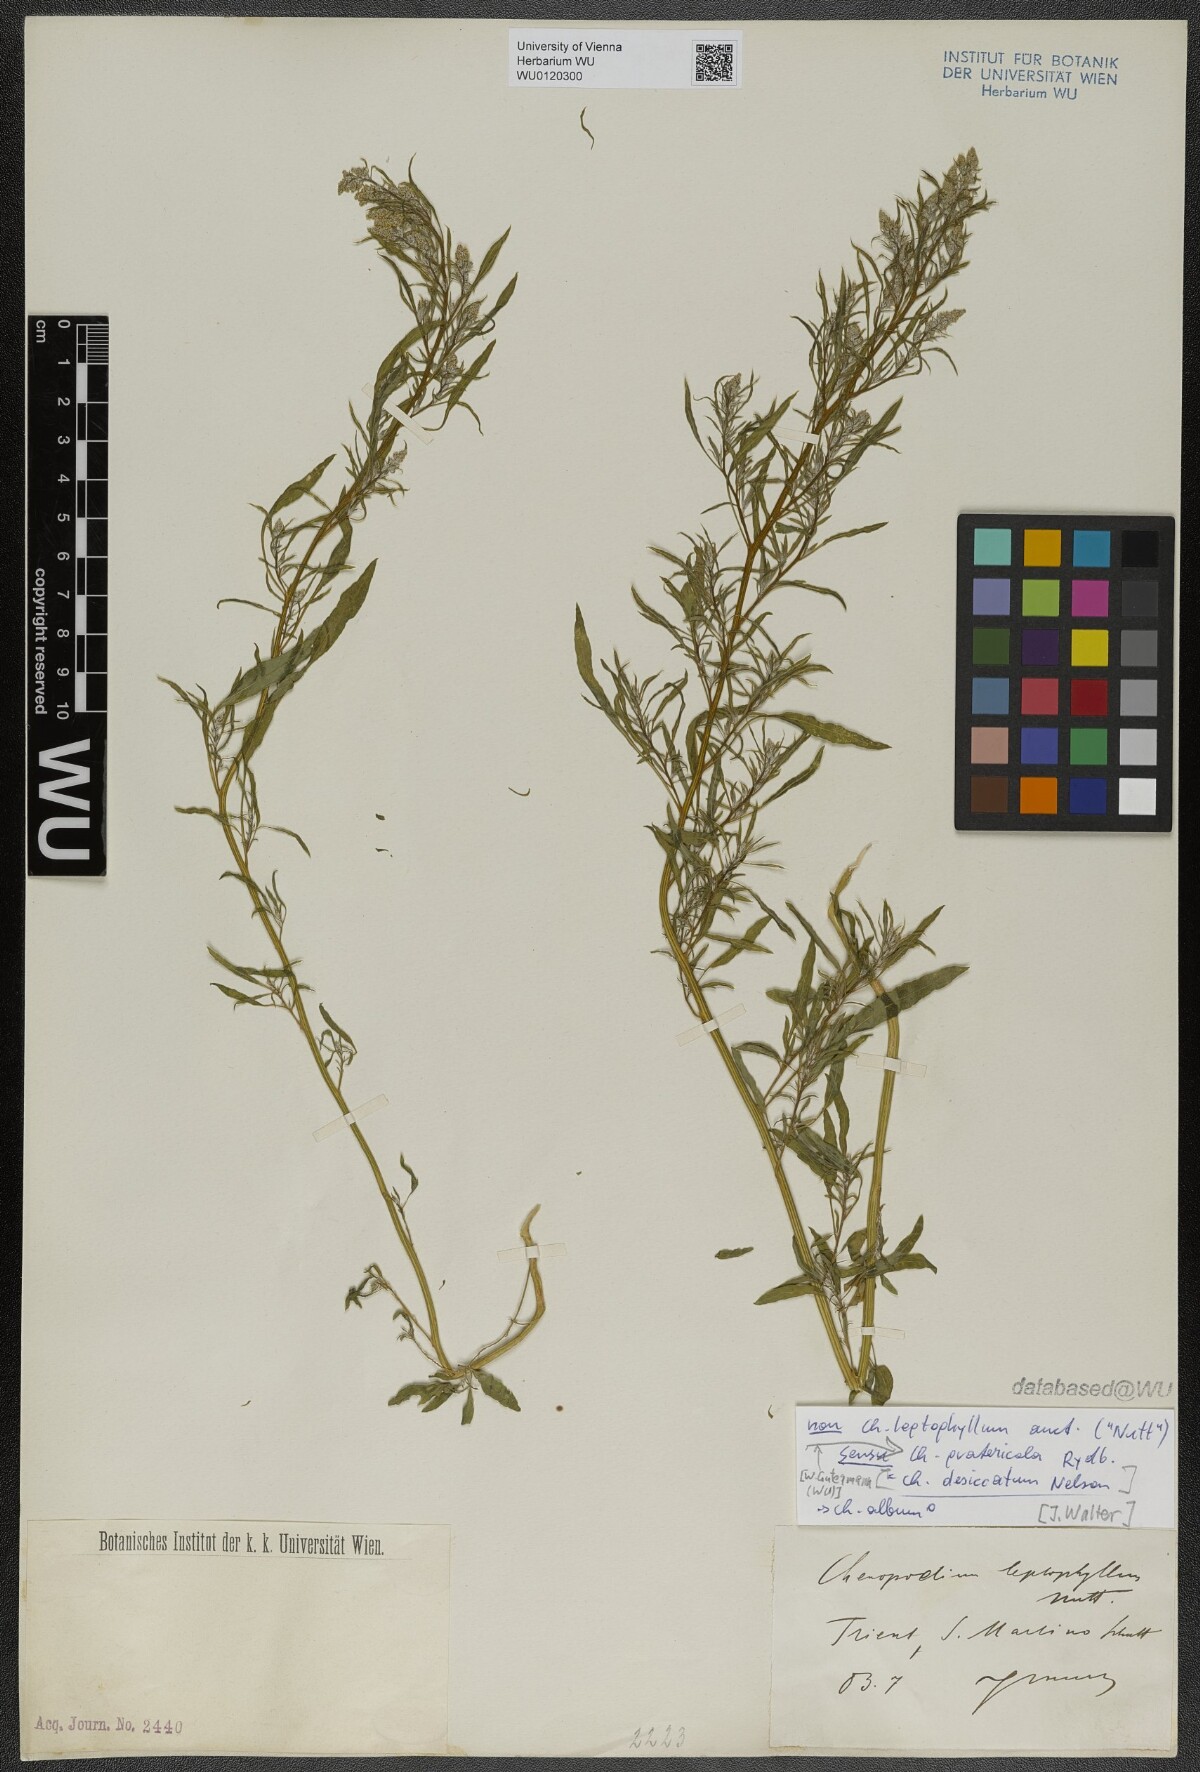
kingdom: Plantae
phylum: Tracheophyta
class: Magnoliopsida
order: Caryophyllales
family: Amaranthaceae
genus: Chenopodium
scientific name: Chenopodium pratericola
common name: Desert goosefoot
